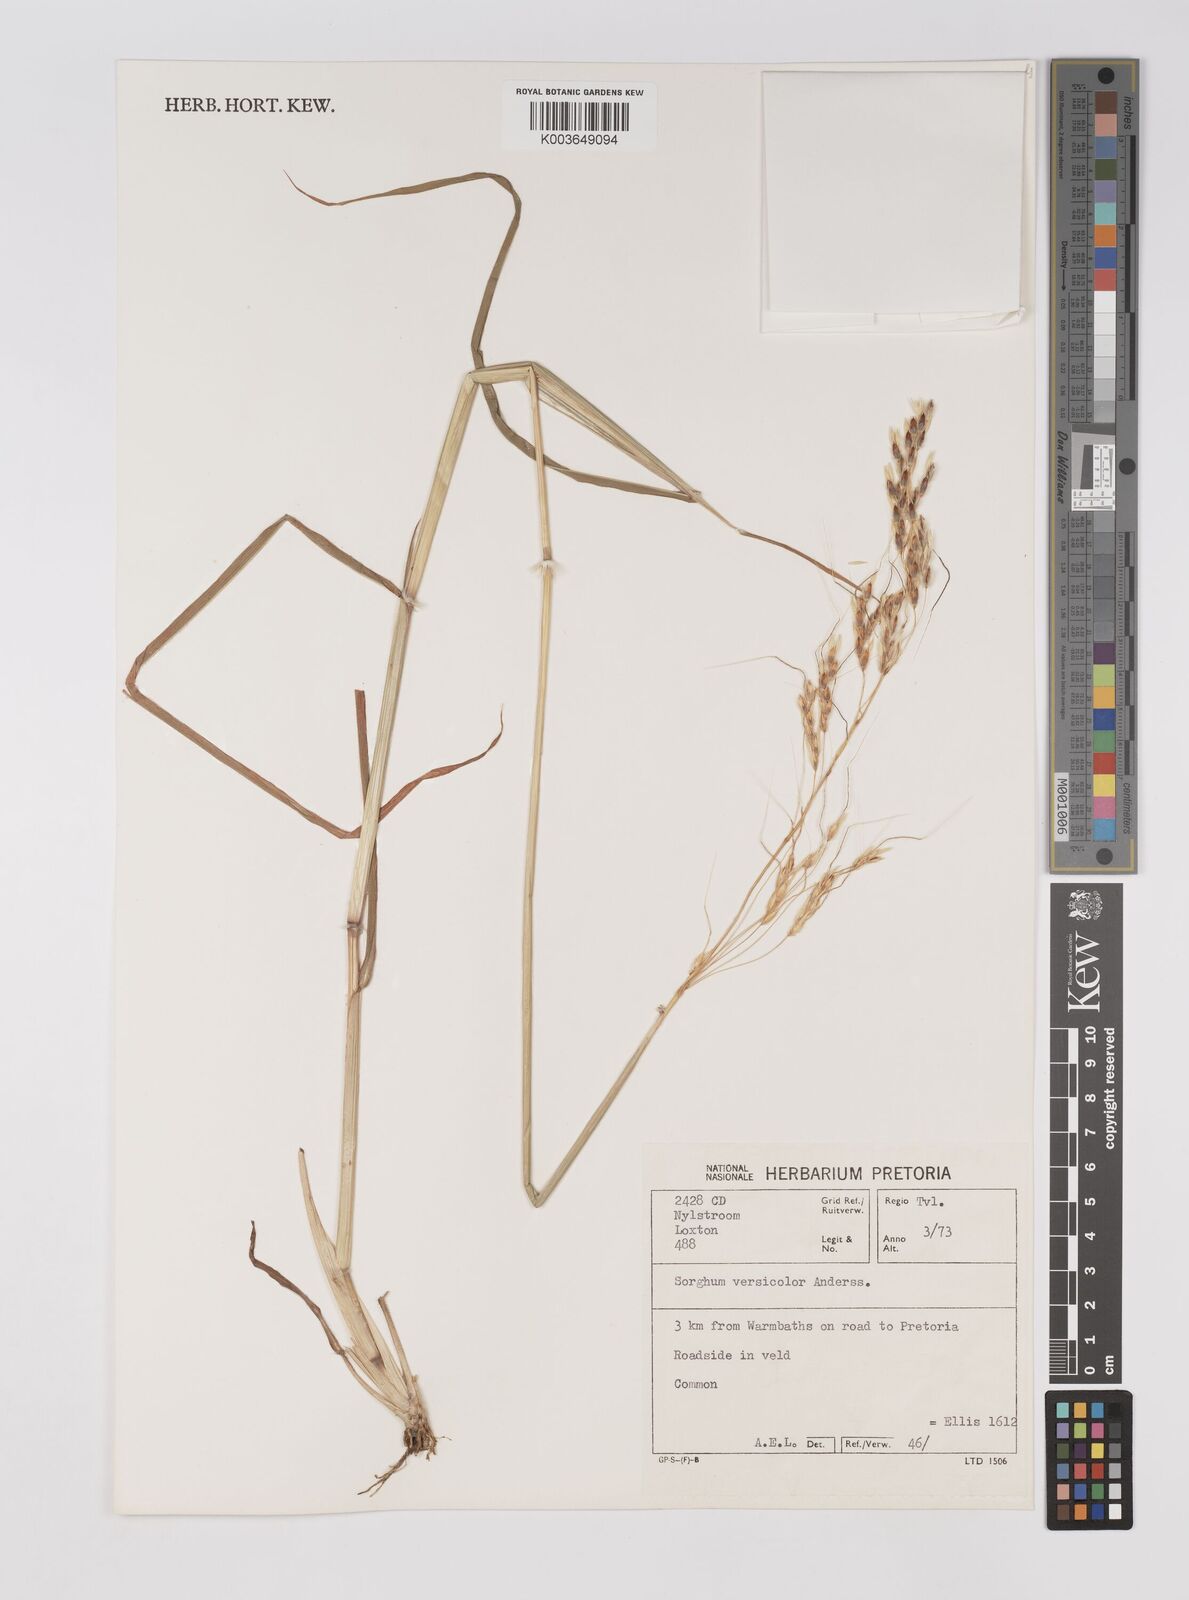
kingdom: Plantae
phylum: Tracheophyta
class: Liliopsida
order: Poales
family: Poaceae
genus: Sarga
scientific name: Sarga versicolor
